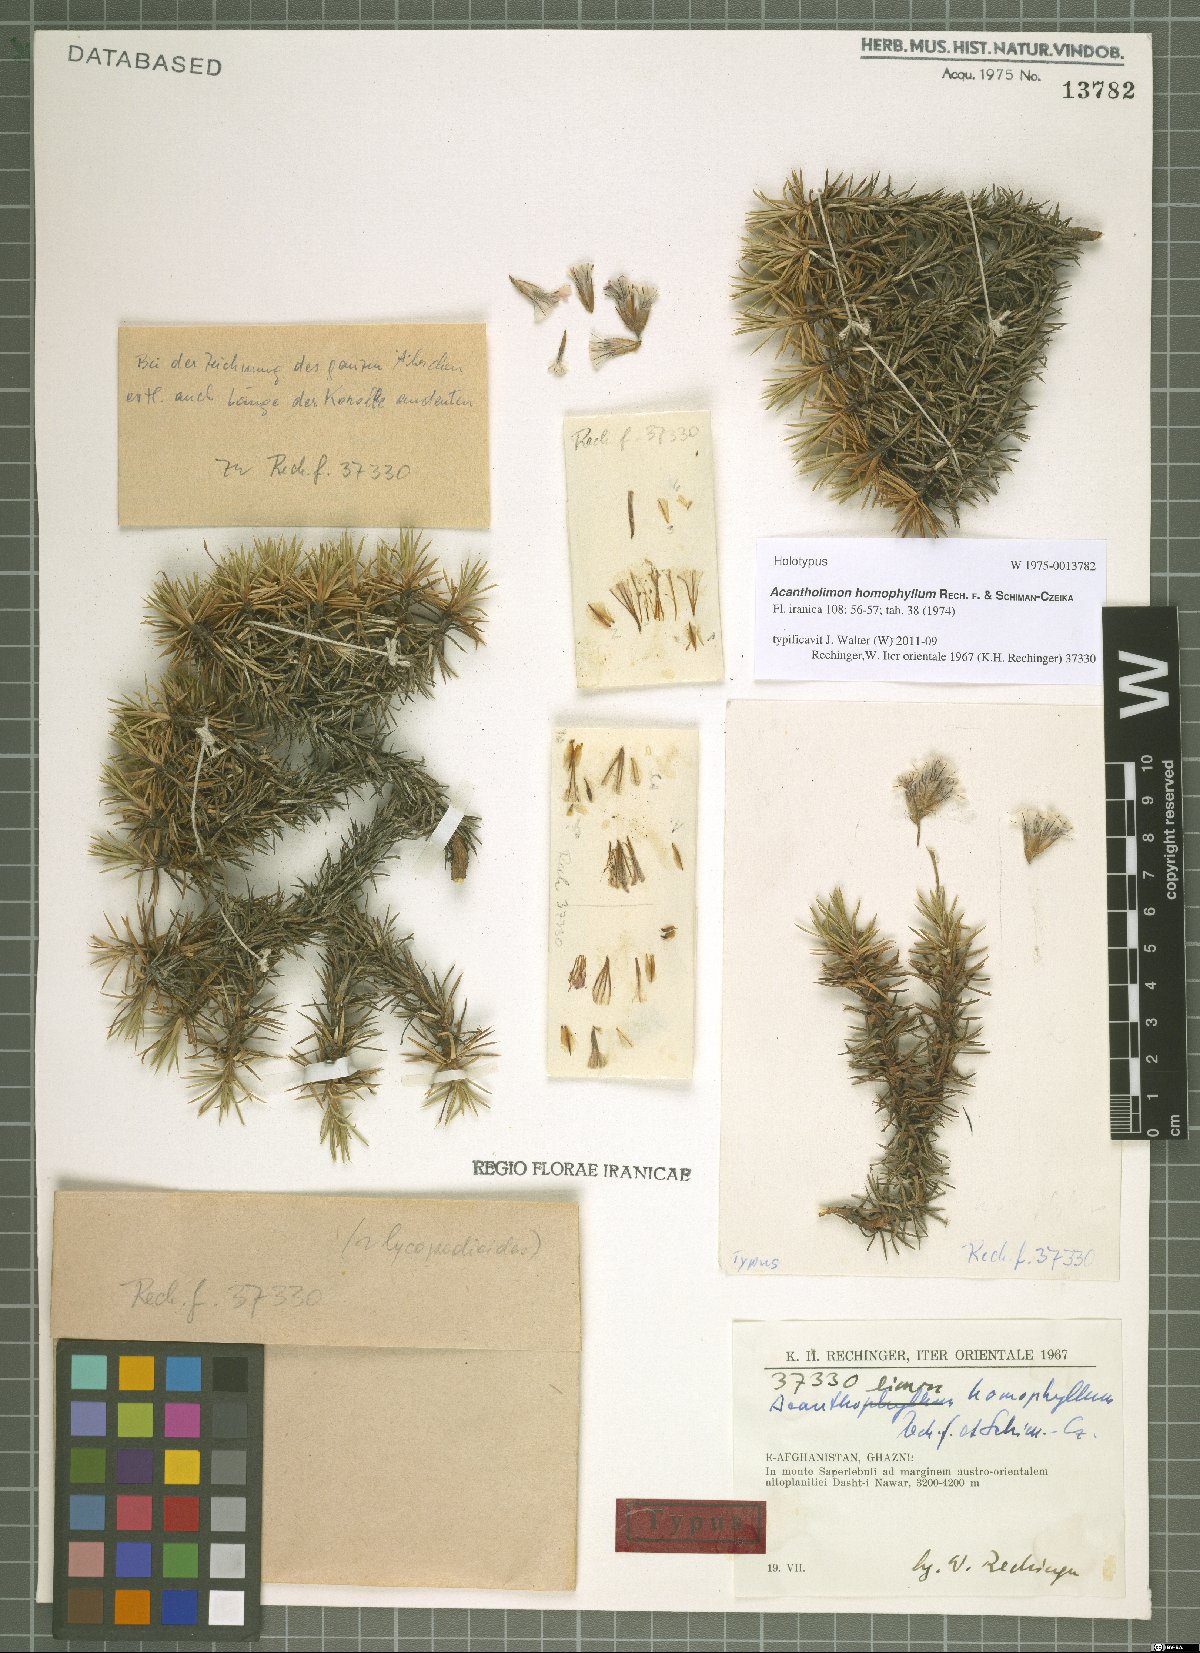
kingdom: Plantae
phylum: Tracheophyta
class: Magnoliopsida
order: Caryophyllales
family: Plumbaginaceae
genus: Acantholimon
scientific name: Acantholimon homophyllum
